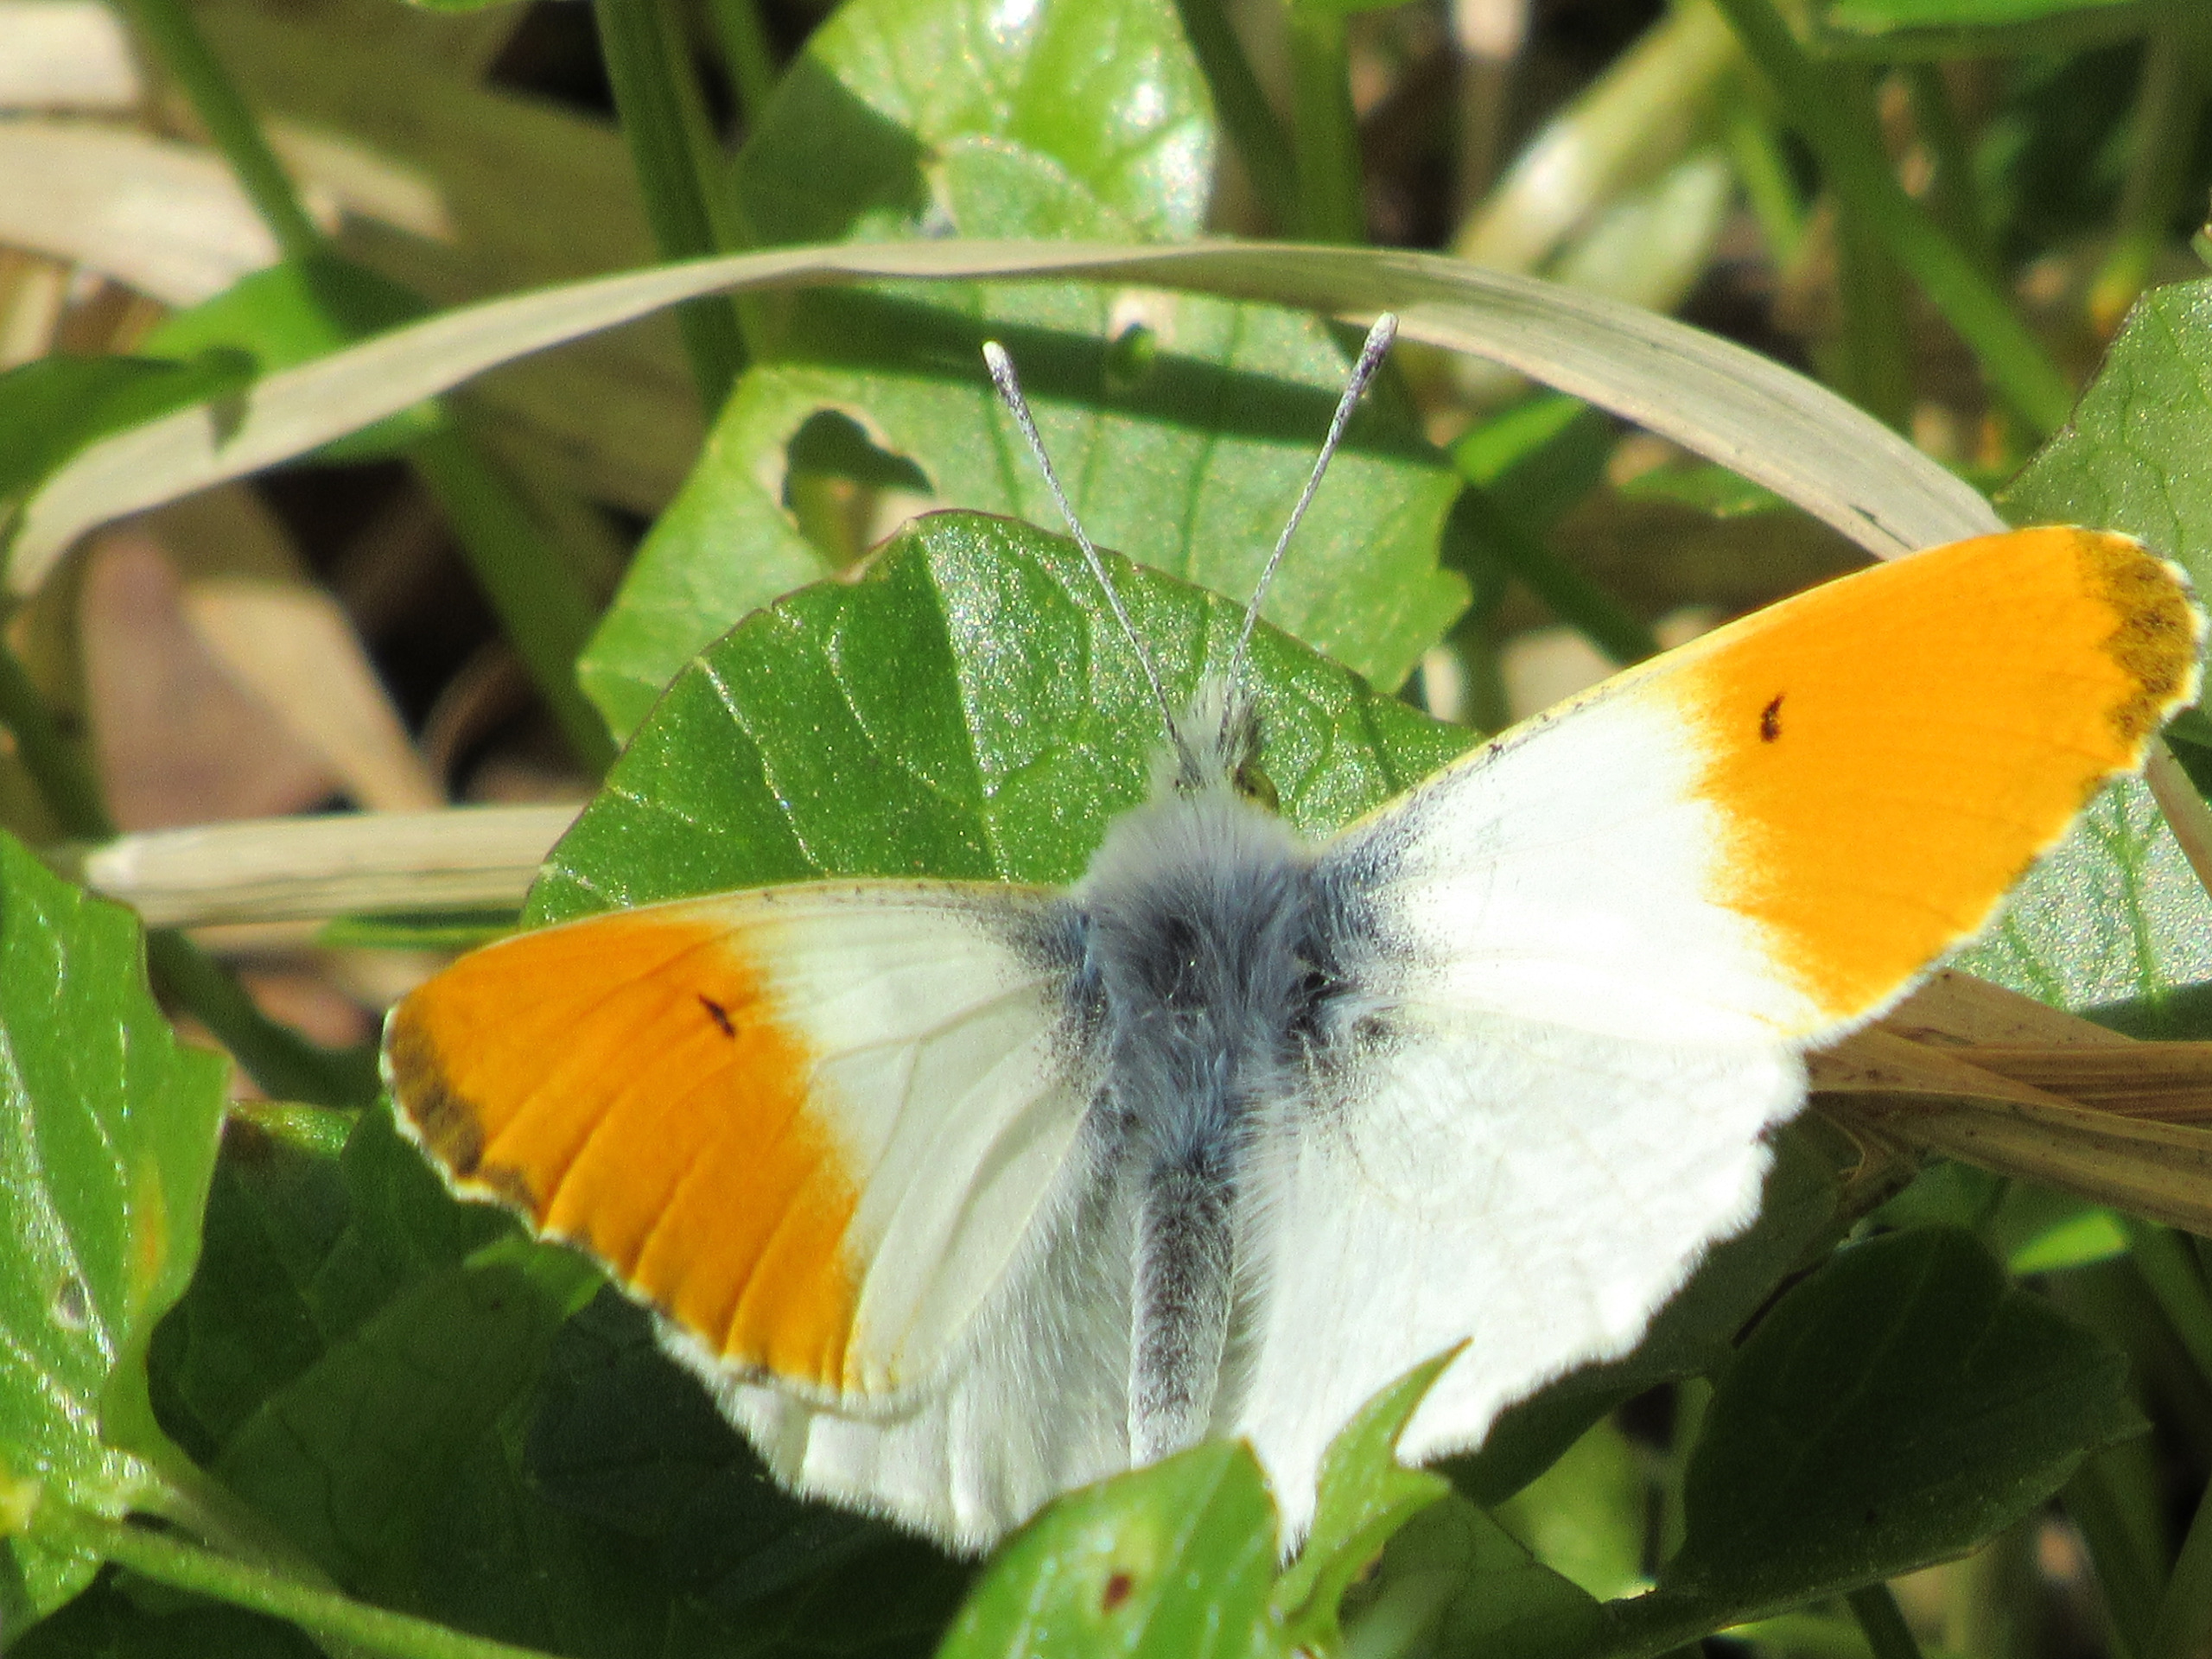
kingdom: Animalia
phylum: Arthropoda
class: Insecta
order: Lepidoptera
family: Pieridae
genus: Anthocharis
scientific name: Anthocharis cardamines
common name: Aurora
